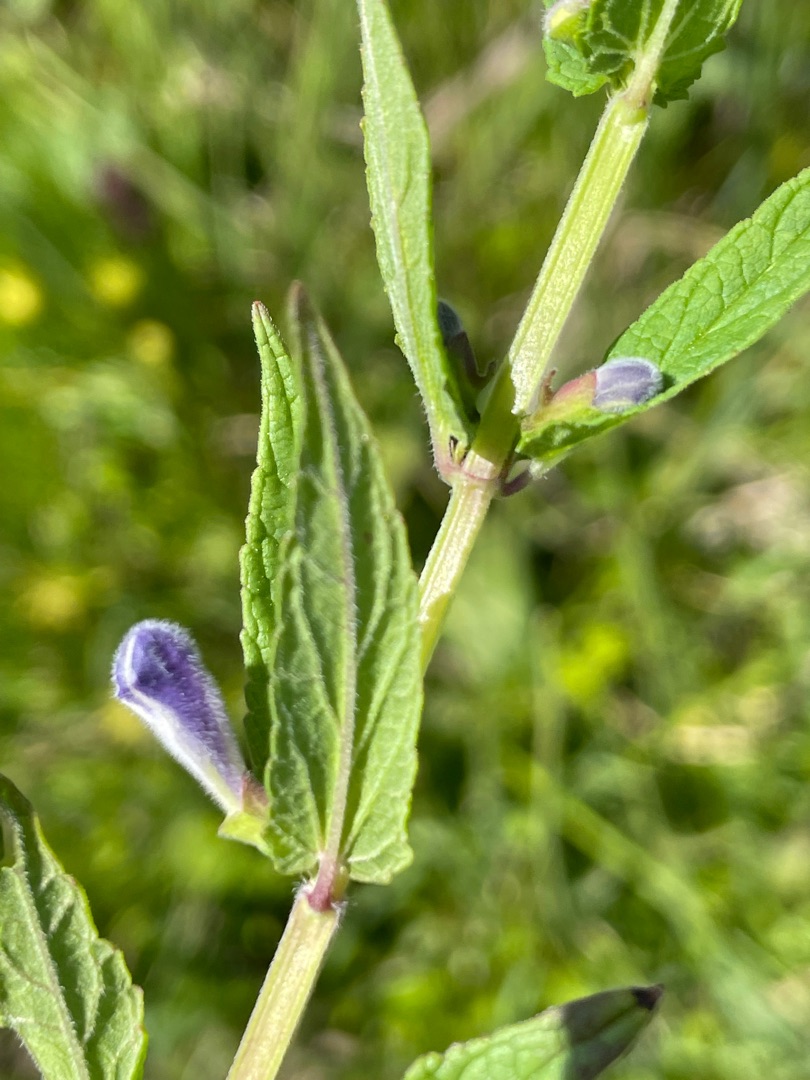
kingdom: Plantae
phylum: Tracheophyta
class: Magnoliopsida
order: Lamiales
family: Lamiaceae
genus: Scutellaria
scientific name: Scutellaria galericulata
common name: Almindelig skjolddrager
